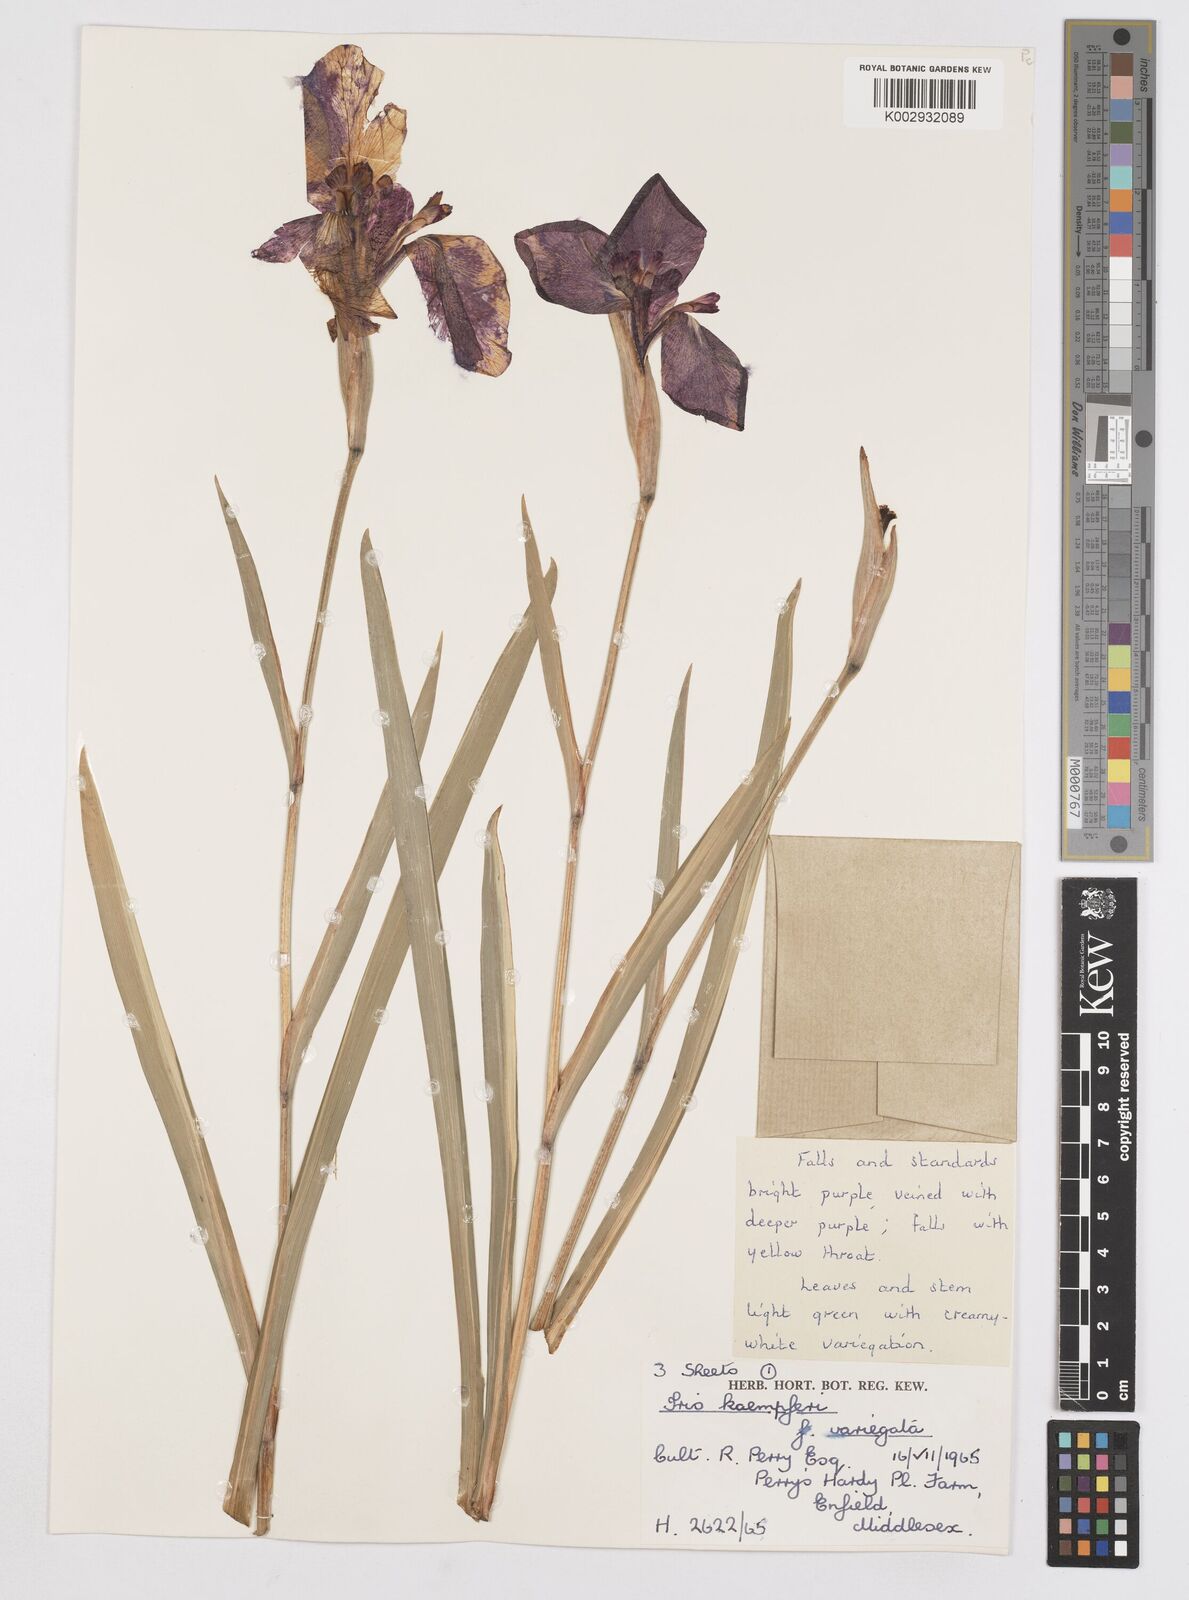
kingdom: Plantae
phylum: Tracheophyta
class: Liliopsida
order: Asparagales
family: Iridaceae
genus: Iris
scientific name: Iris ensata
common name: Beaked iris
